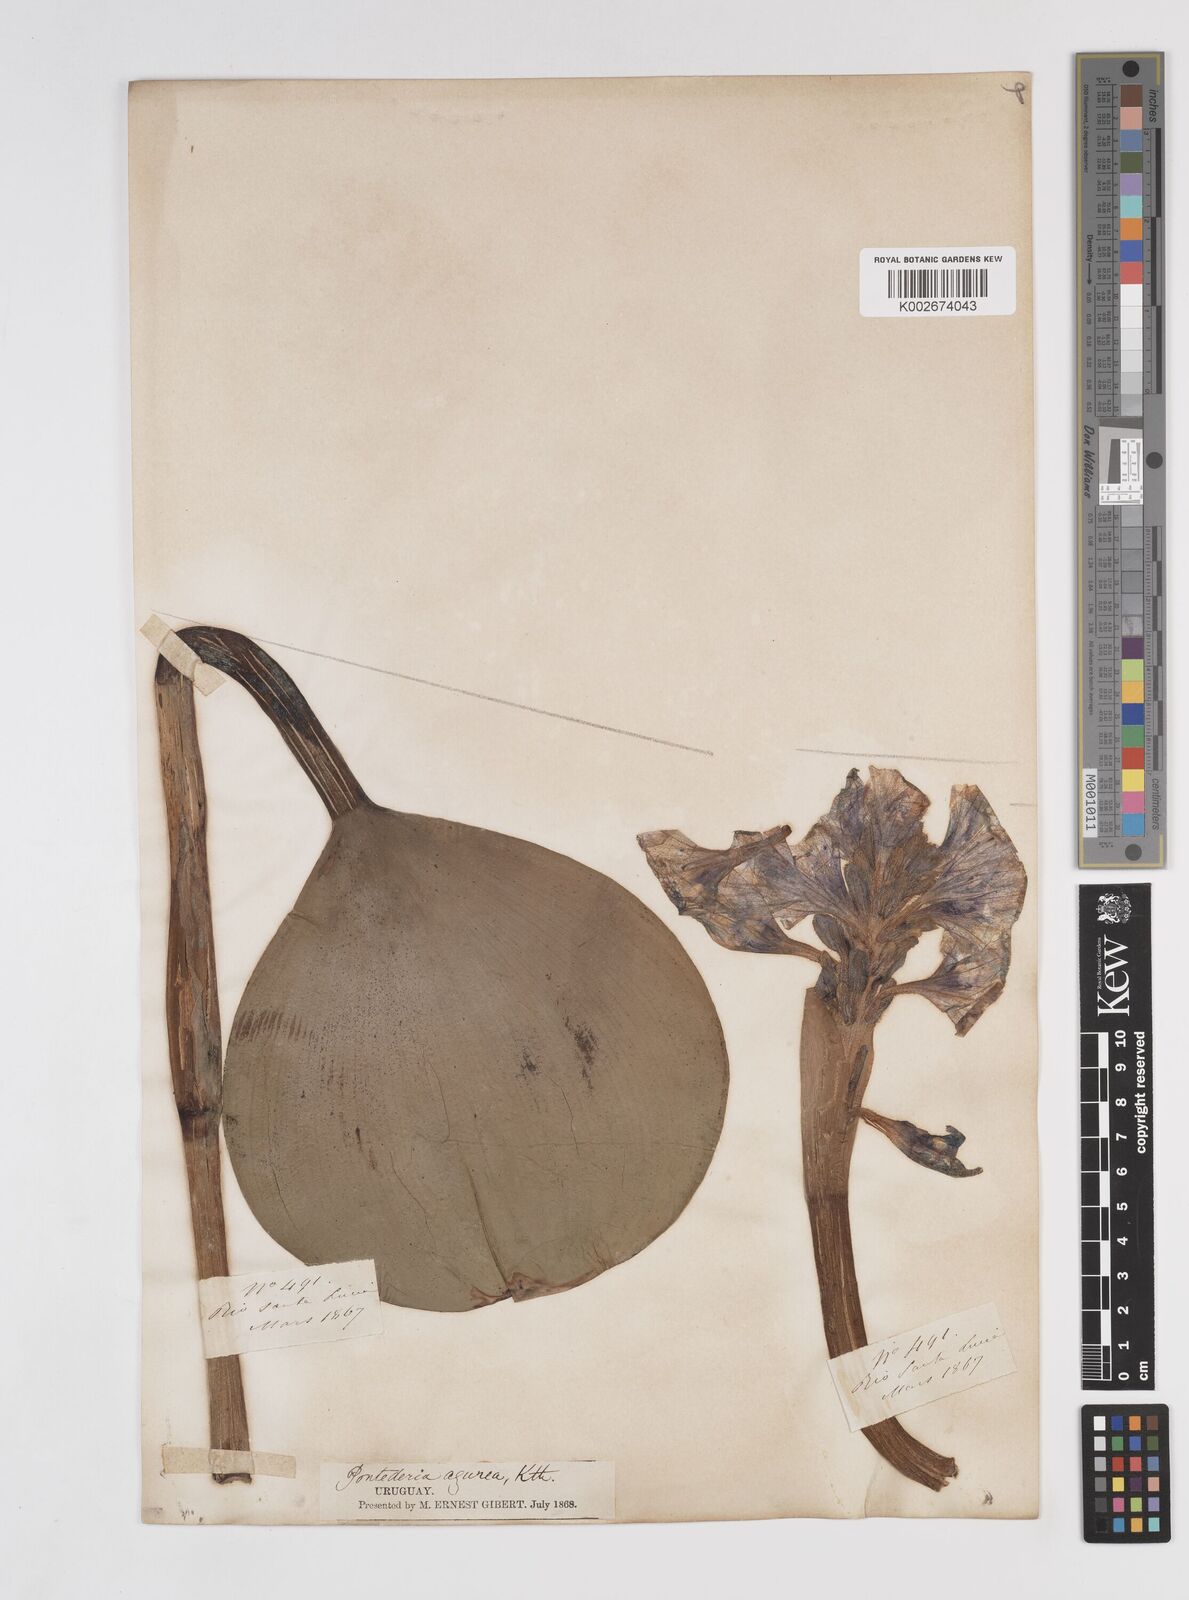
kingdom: Plantae
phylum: Tracheophyta
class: Liliopsida
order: Commelinales
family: Pontederiaceae
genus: Pontederia
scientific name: Pontederia azurea
